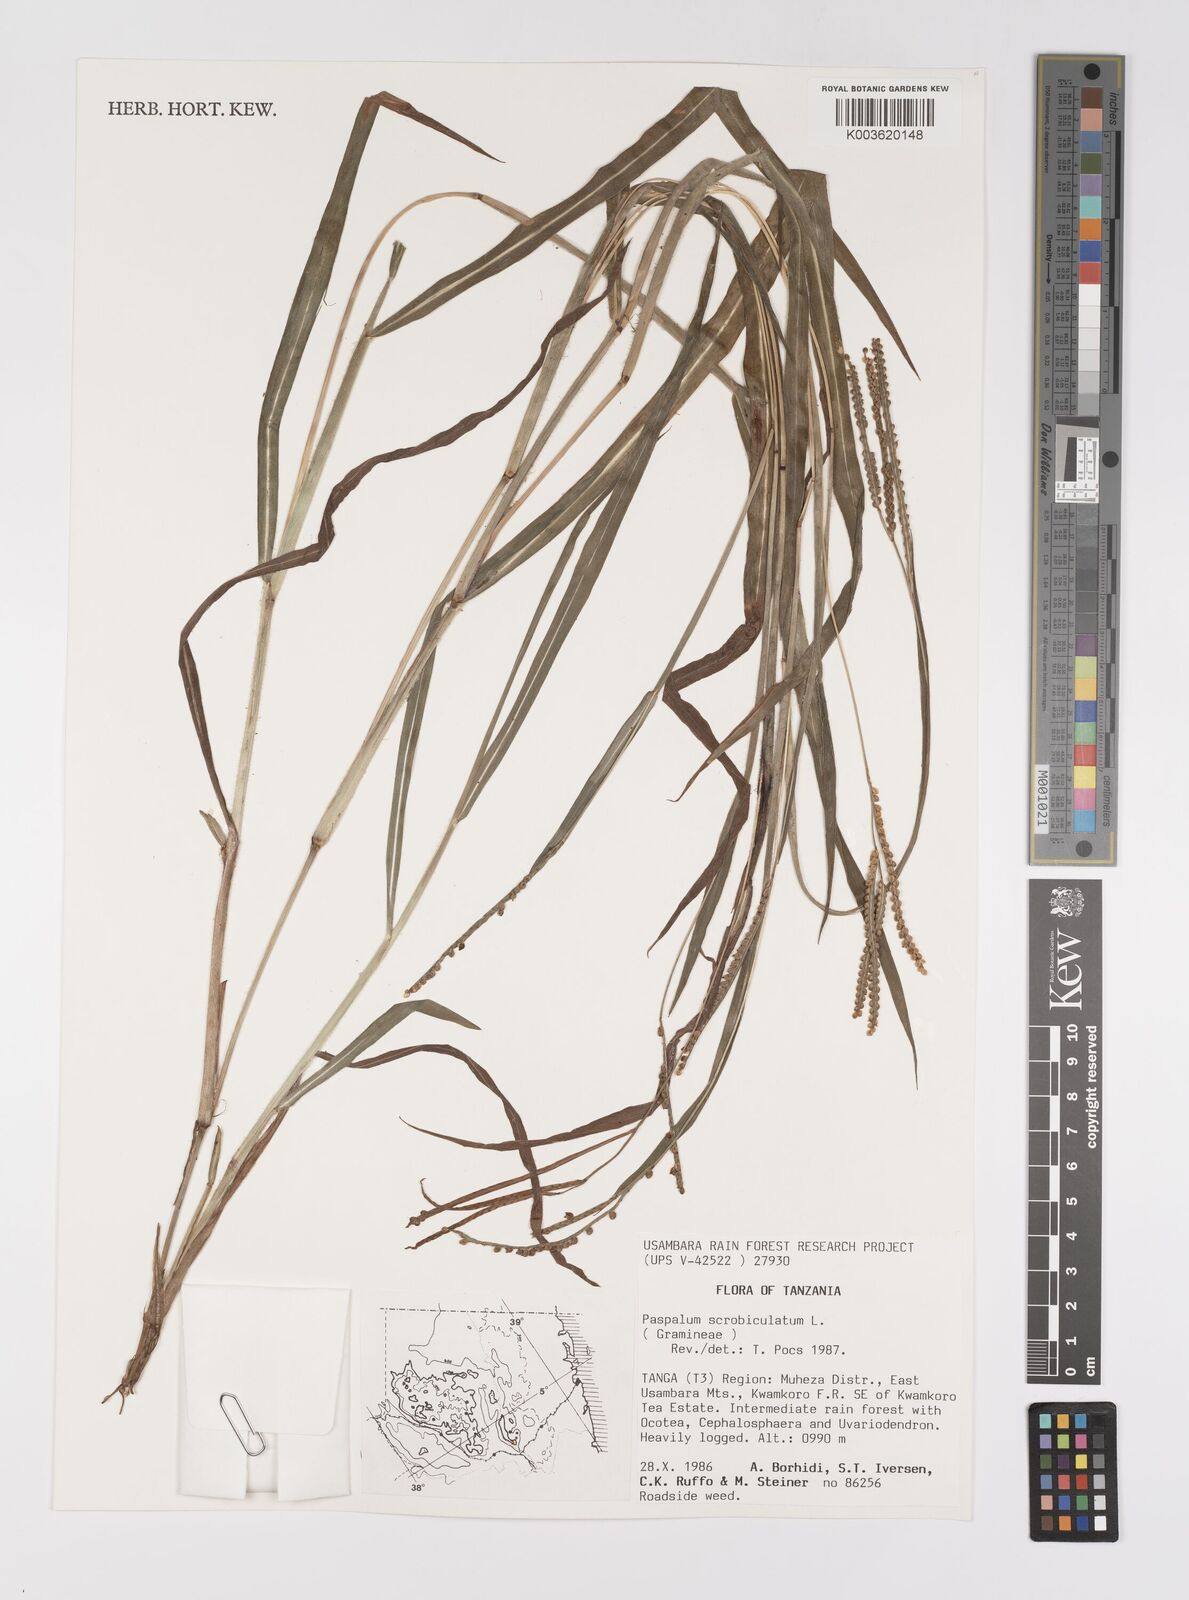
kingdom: Plantae
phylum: Tracheophyta
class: Liliopsida
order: Poales
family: Poaceae
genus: Paspalum
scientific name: Paspalum scrobiculatum
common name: Kodo millet
